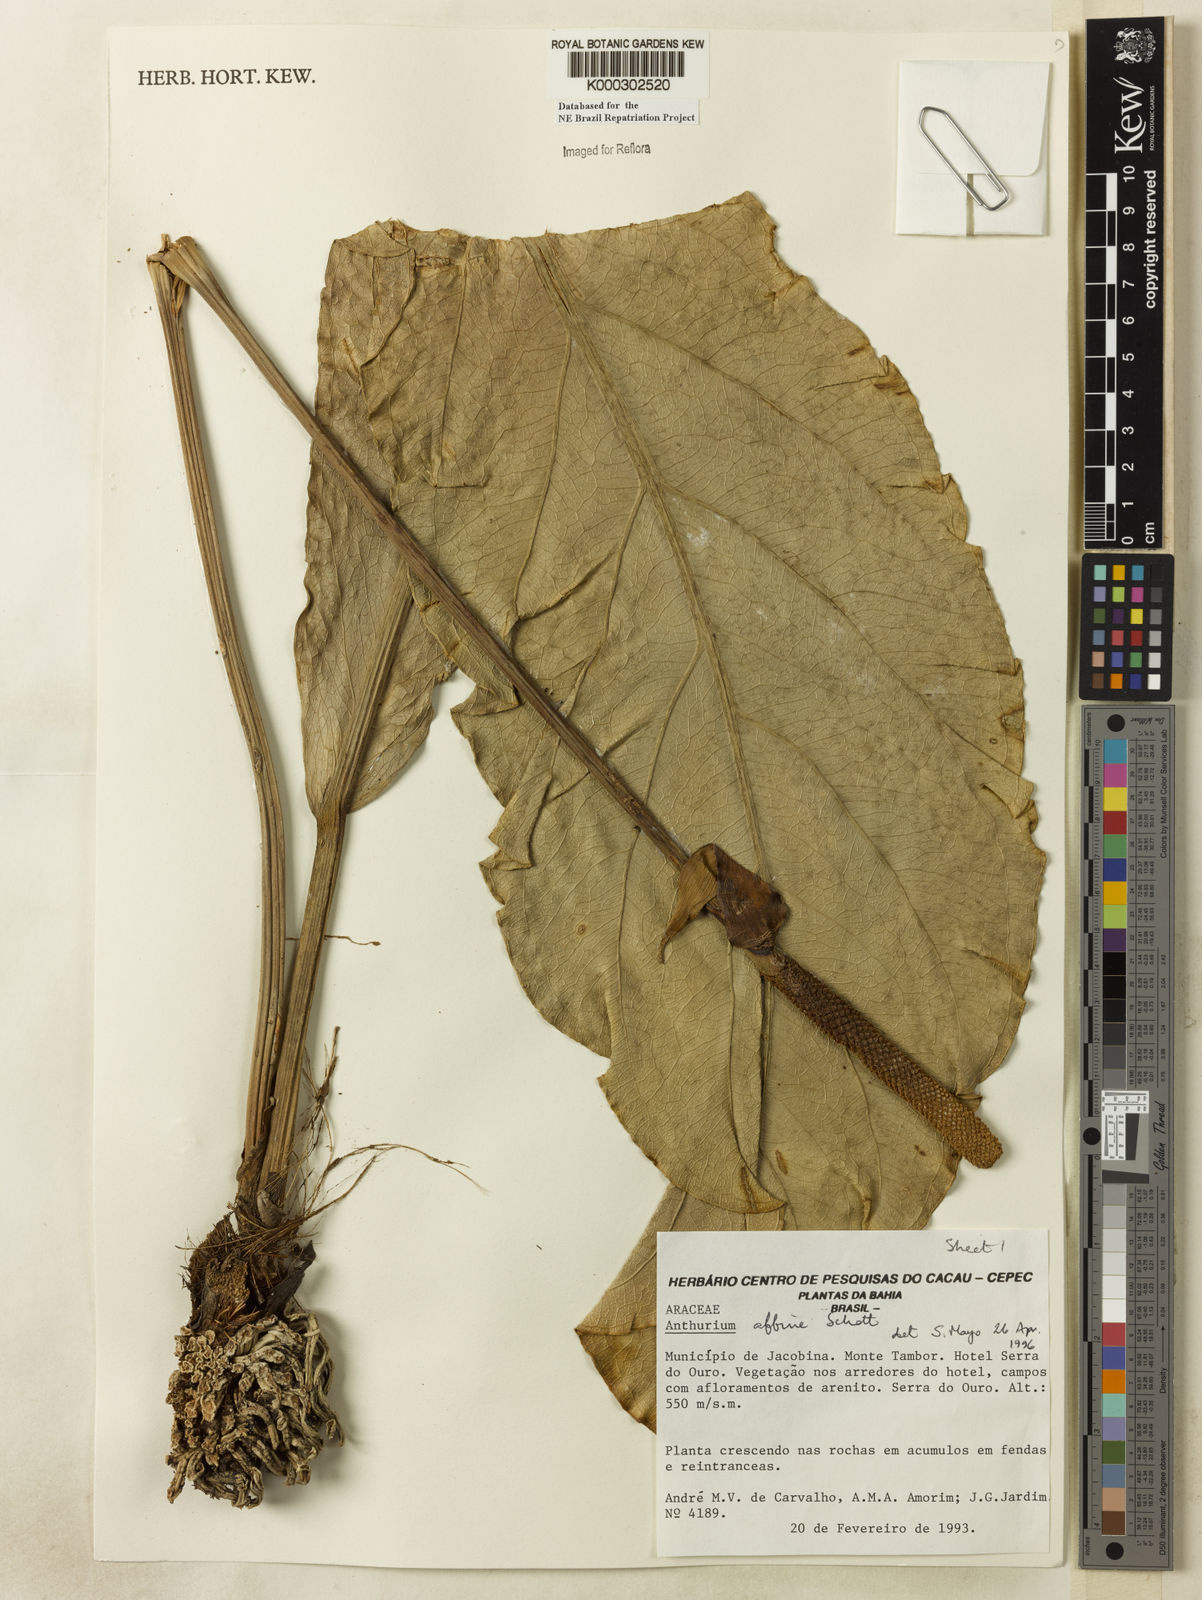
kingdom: Plantae
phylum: Tracheophyta
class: Liliopsida
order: Alismatales
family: Araceae
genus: Anthurium
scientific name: Anthurium affine
